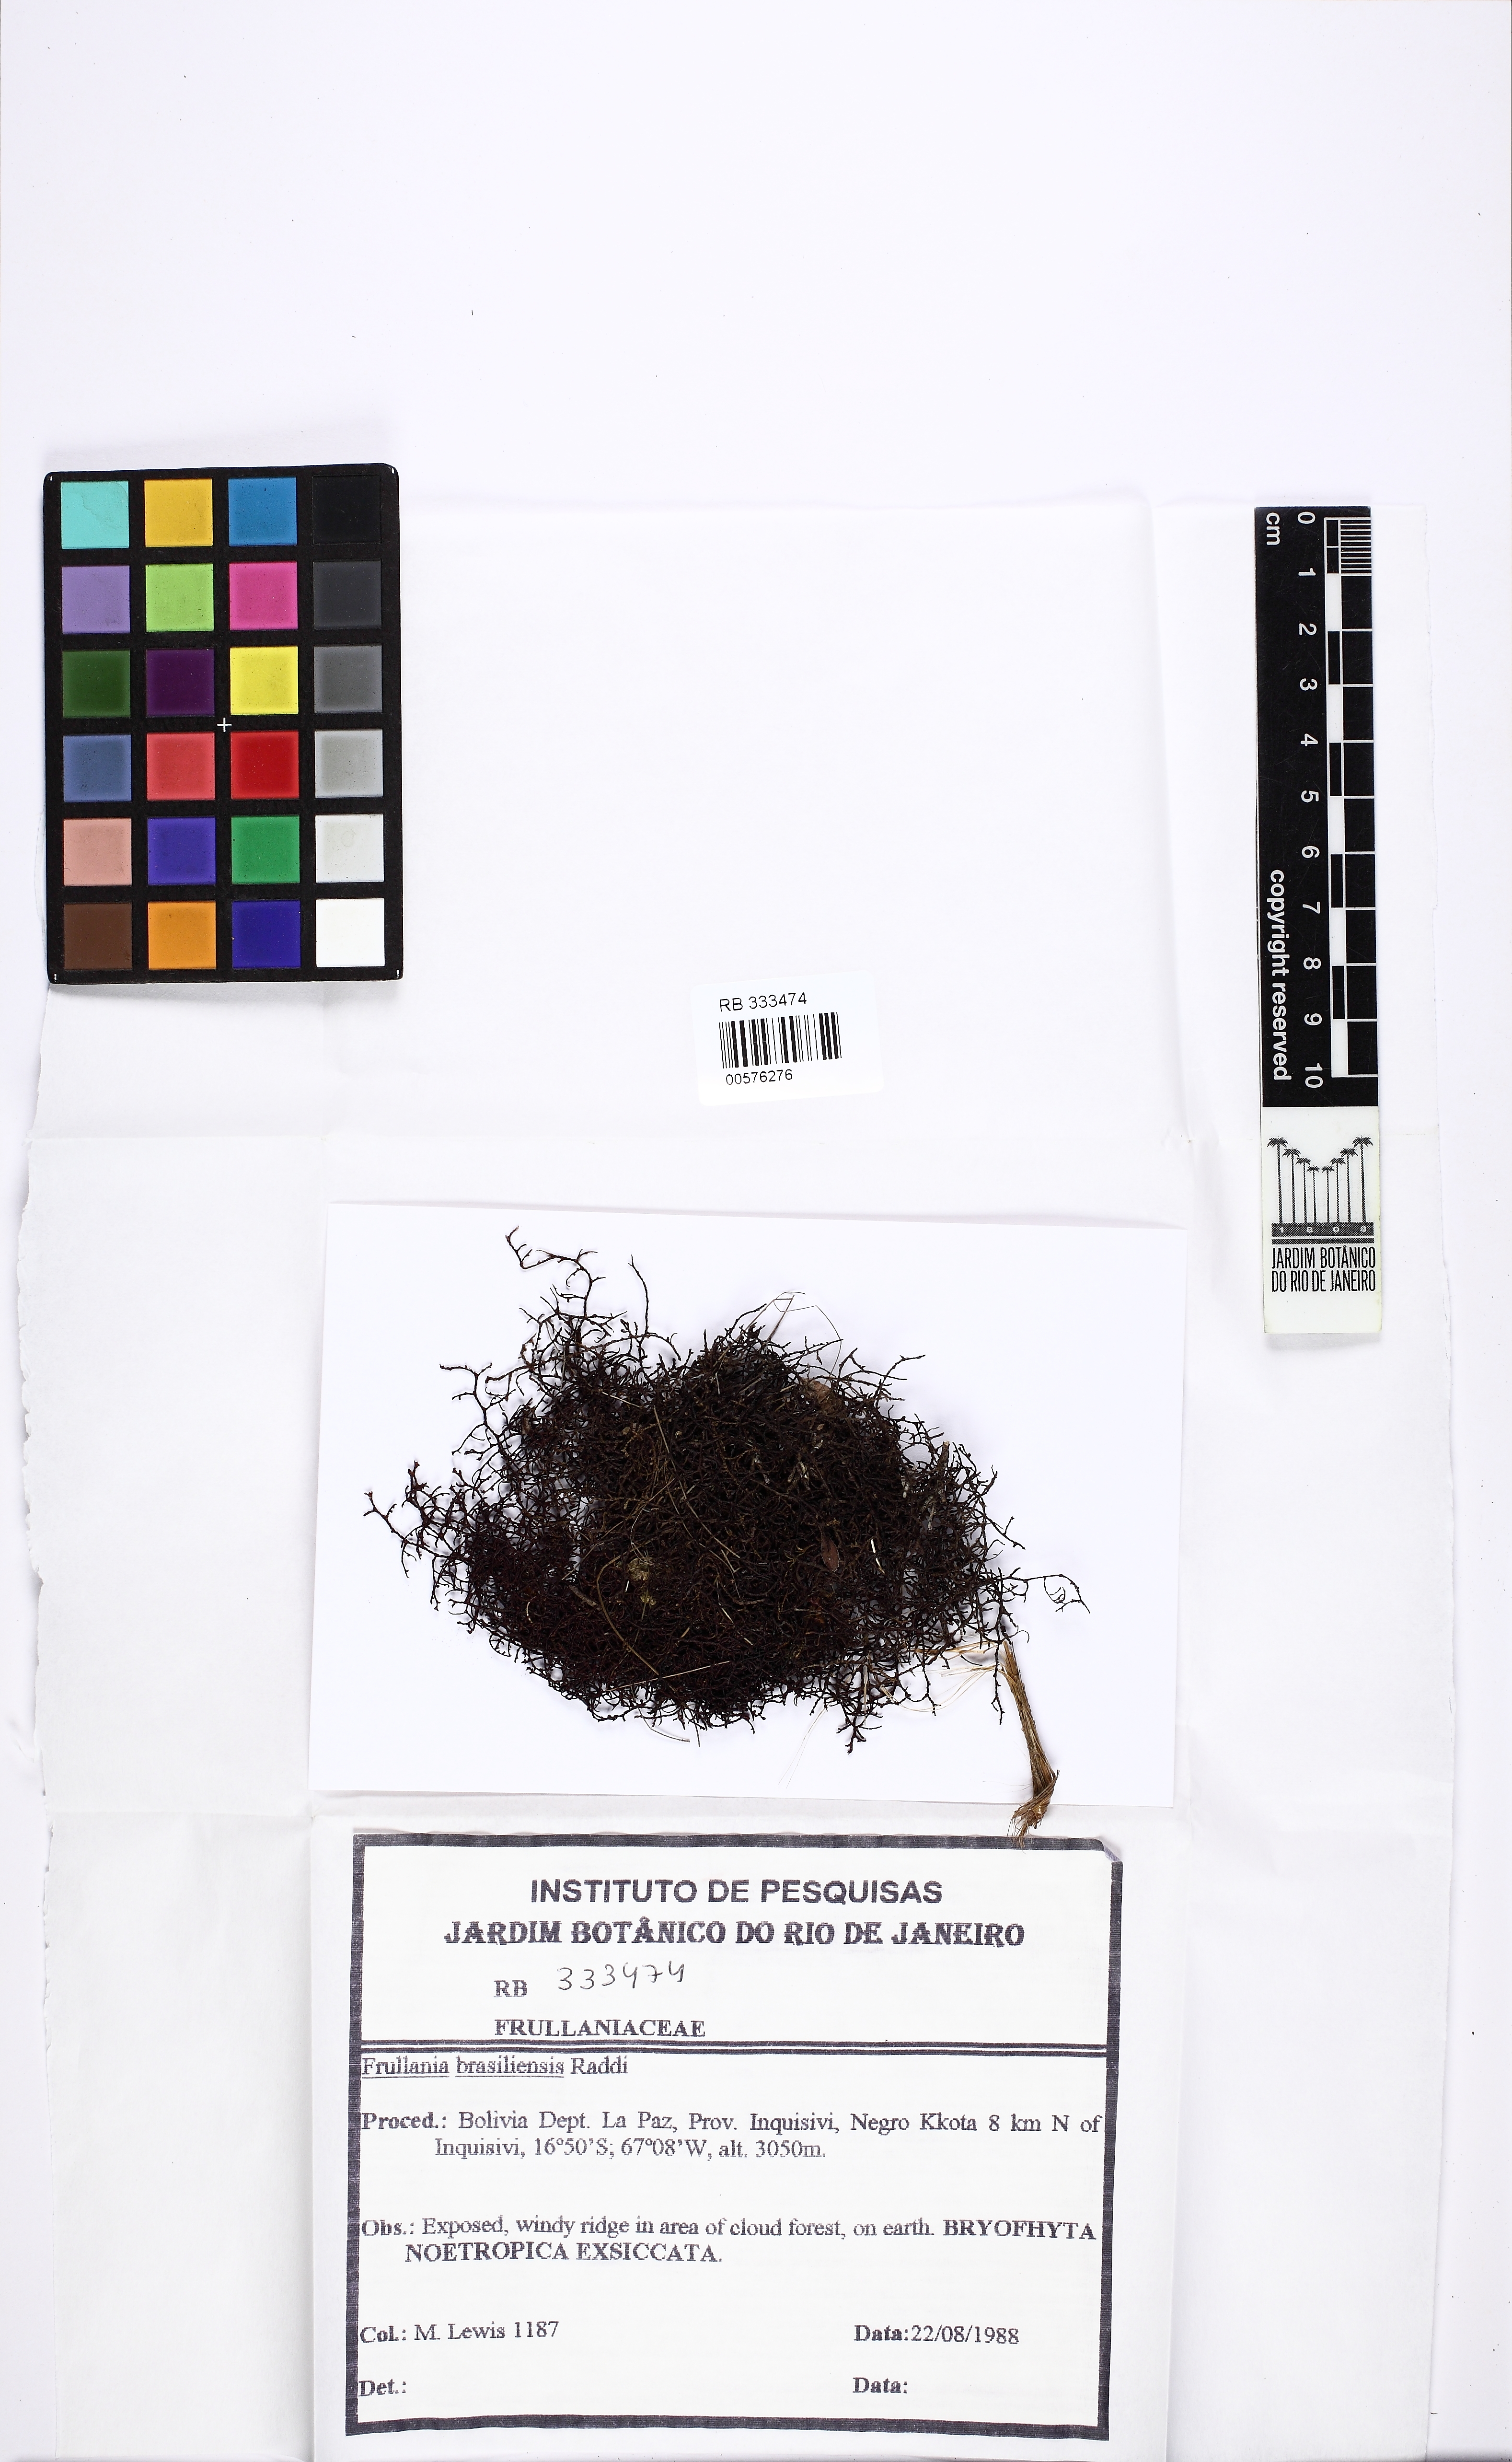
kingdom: Plantae
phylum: Marchantiophyta
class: Jungermanniopsida
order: Porellales
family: Frullaniaceae
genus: Frullania
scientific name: Frullania brasiliensis
